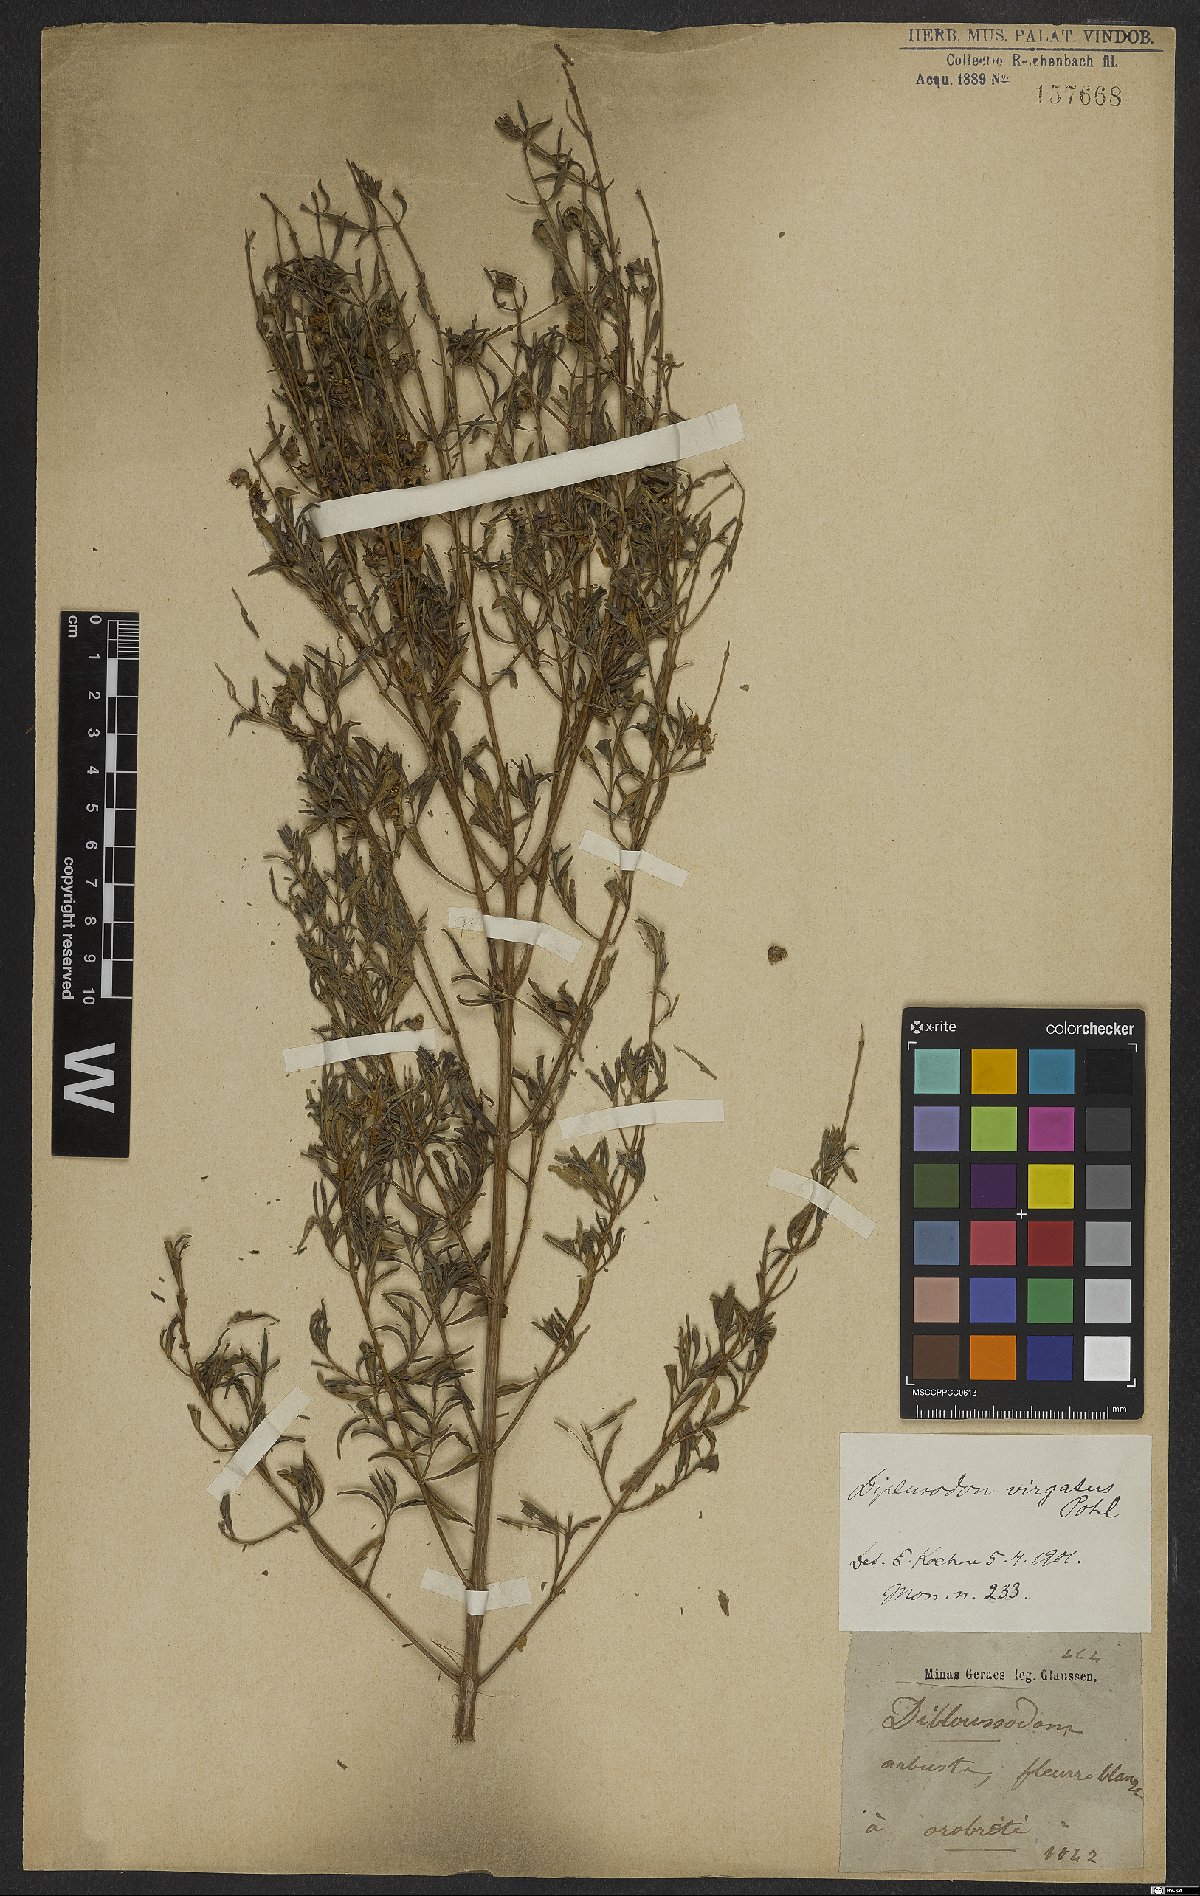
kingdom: Plantae
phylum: Tracheophyta
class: Magnoliopsida
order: Myrtales
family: Lythraceae
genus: Diplusodon
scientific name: Diplusodon virgatus
